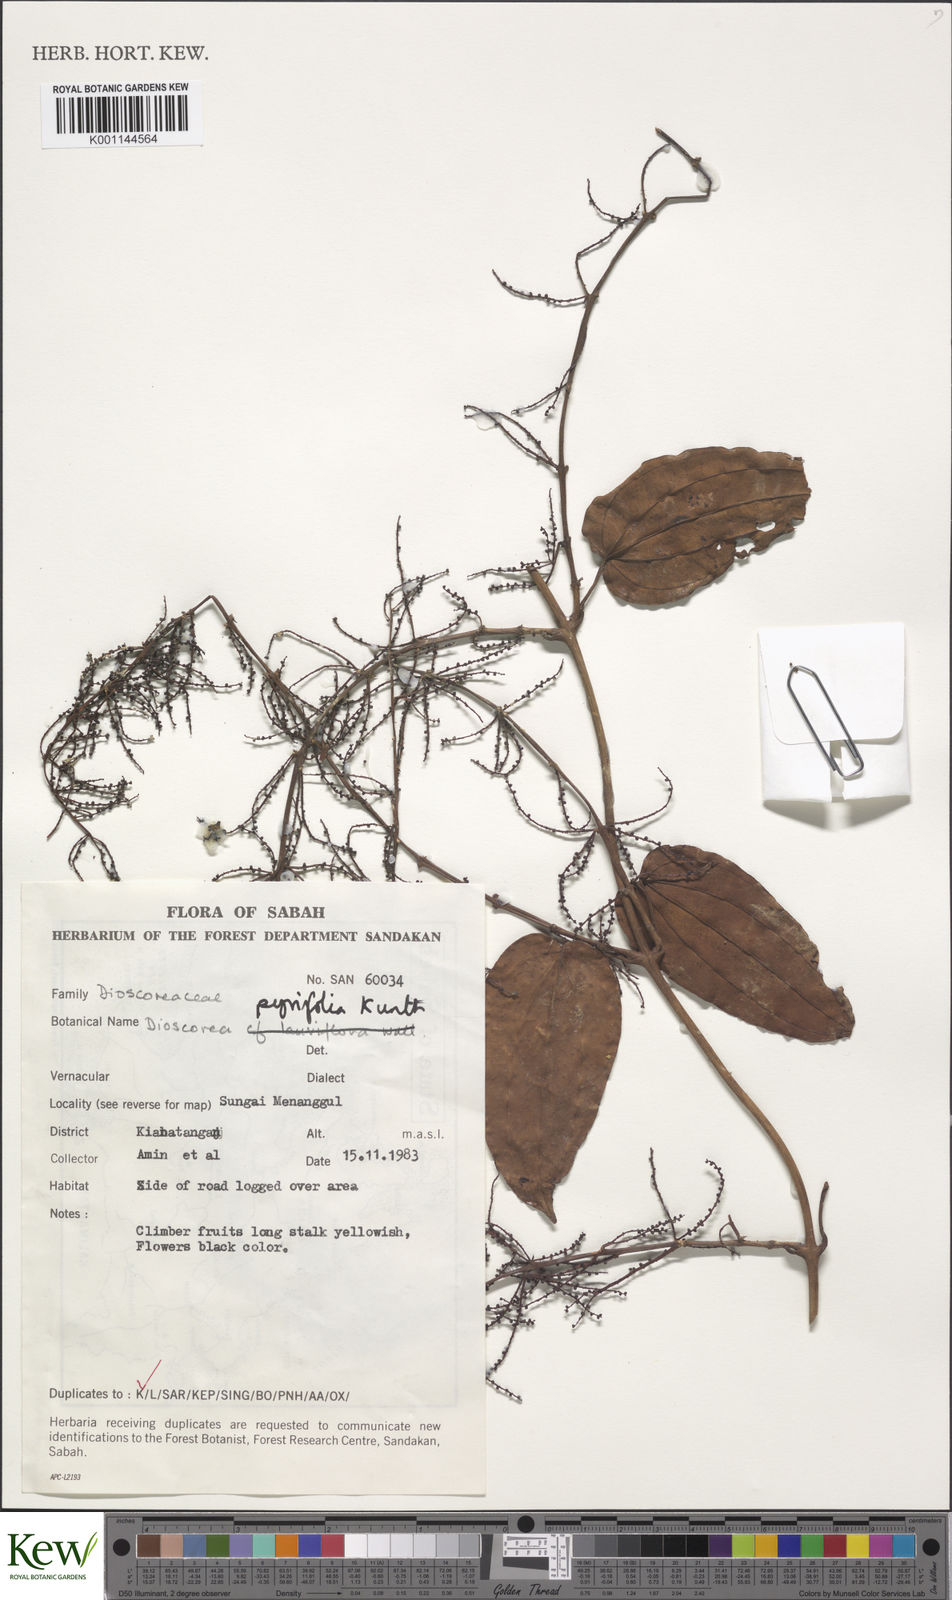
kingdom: Plantae
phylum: Tracheophyta
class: Liliopsida
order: Dioscoreales
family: Dioscoreaceae
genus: Dioscorea
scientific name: Dioscorea pyrifolia
